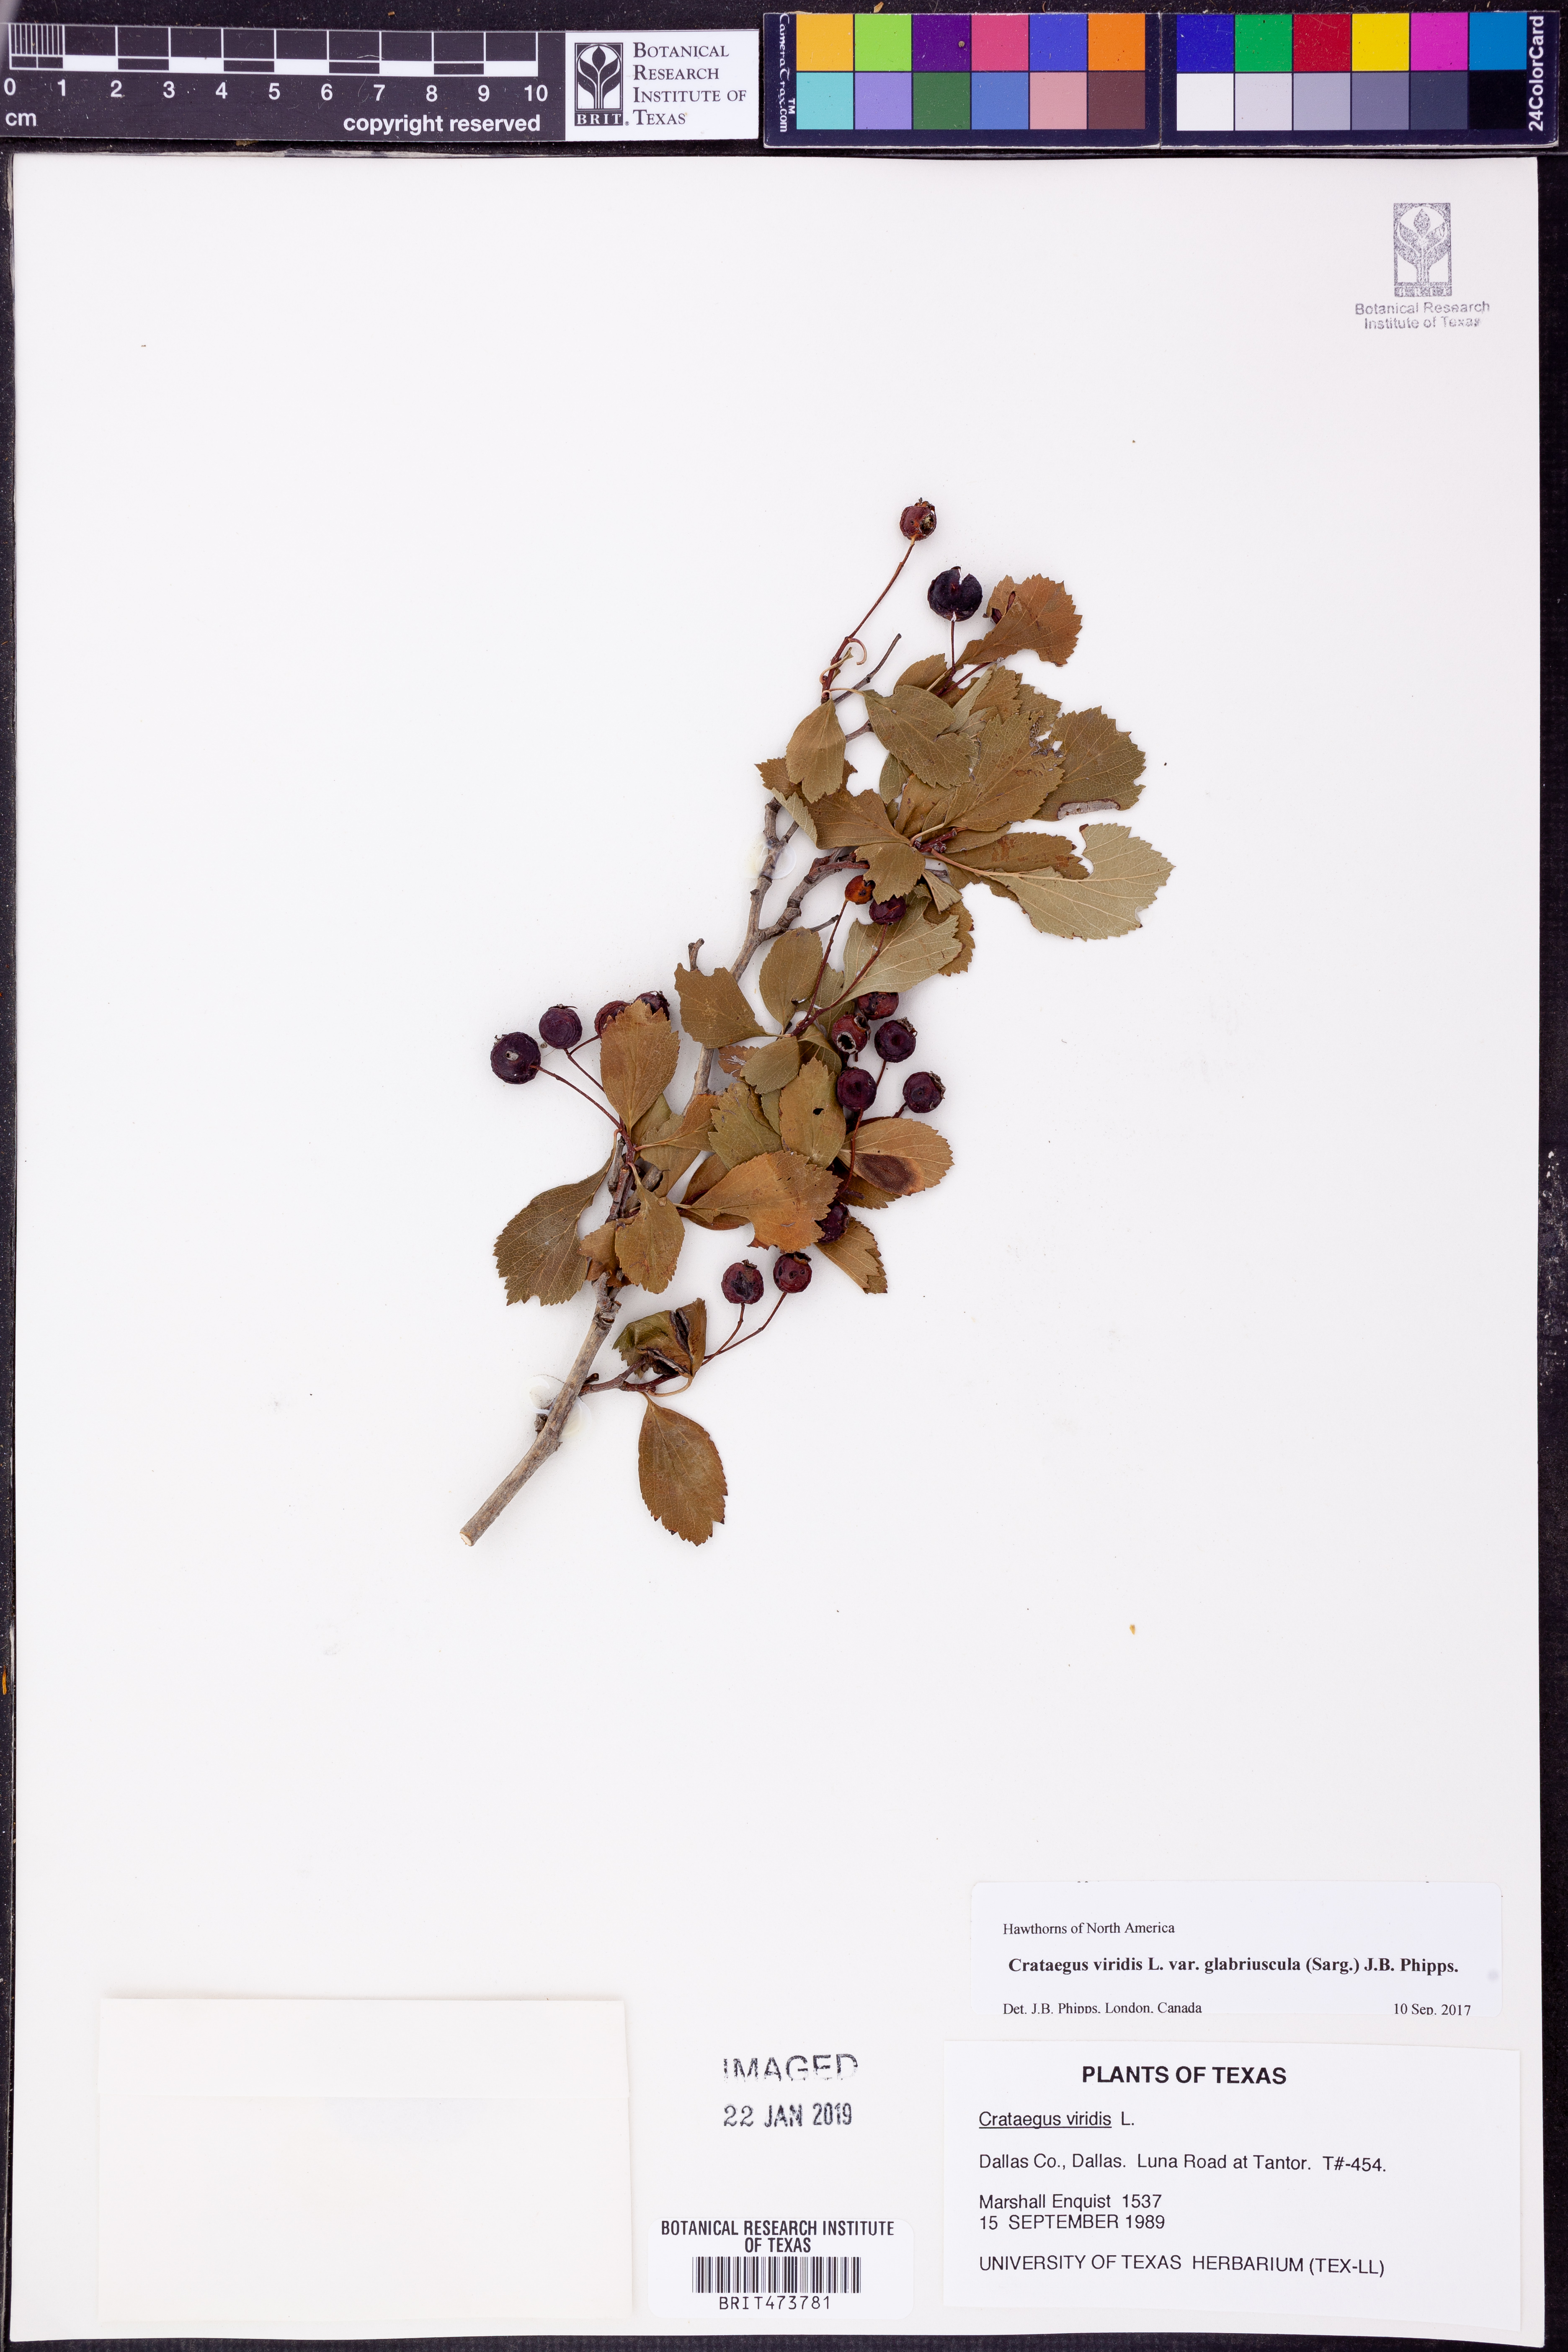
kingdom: Plantae
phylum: Tracheophyta
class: Magnoliopsida
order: Rosales
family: Rosaceae
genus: Crataegus
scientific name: Crataegus viridis
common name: Southernthorn
